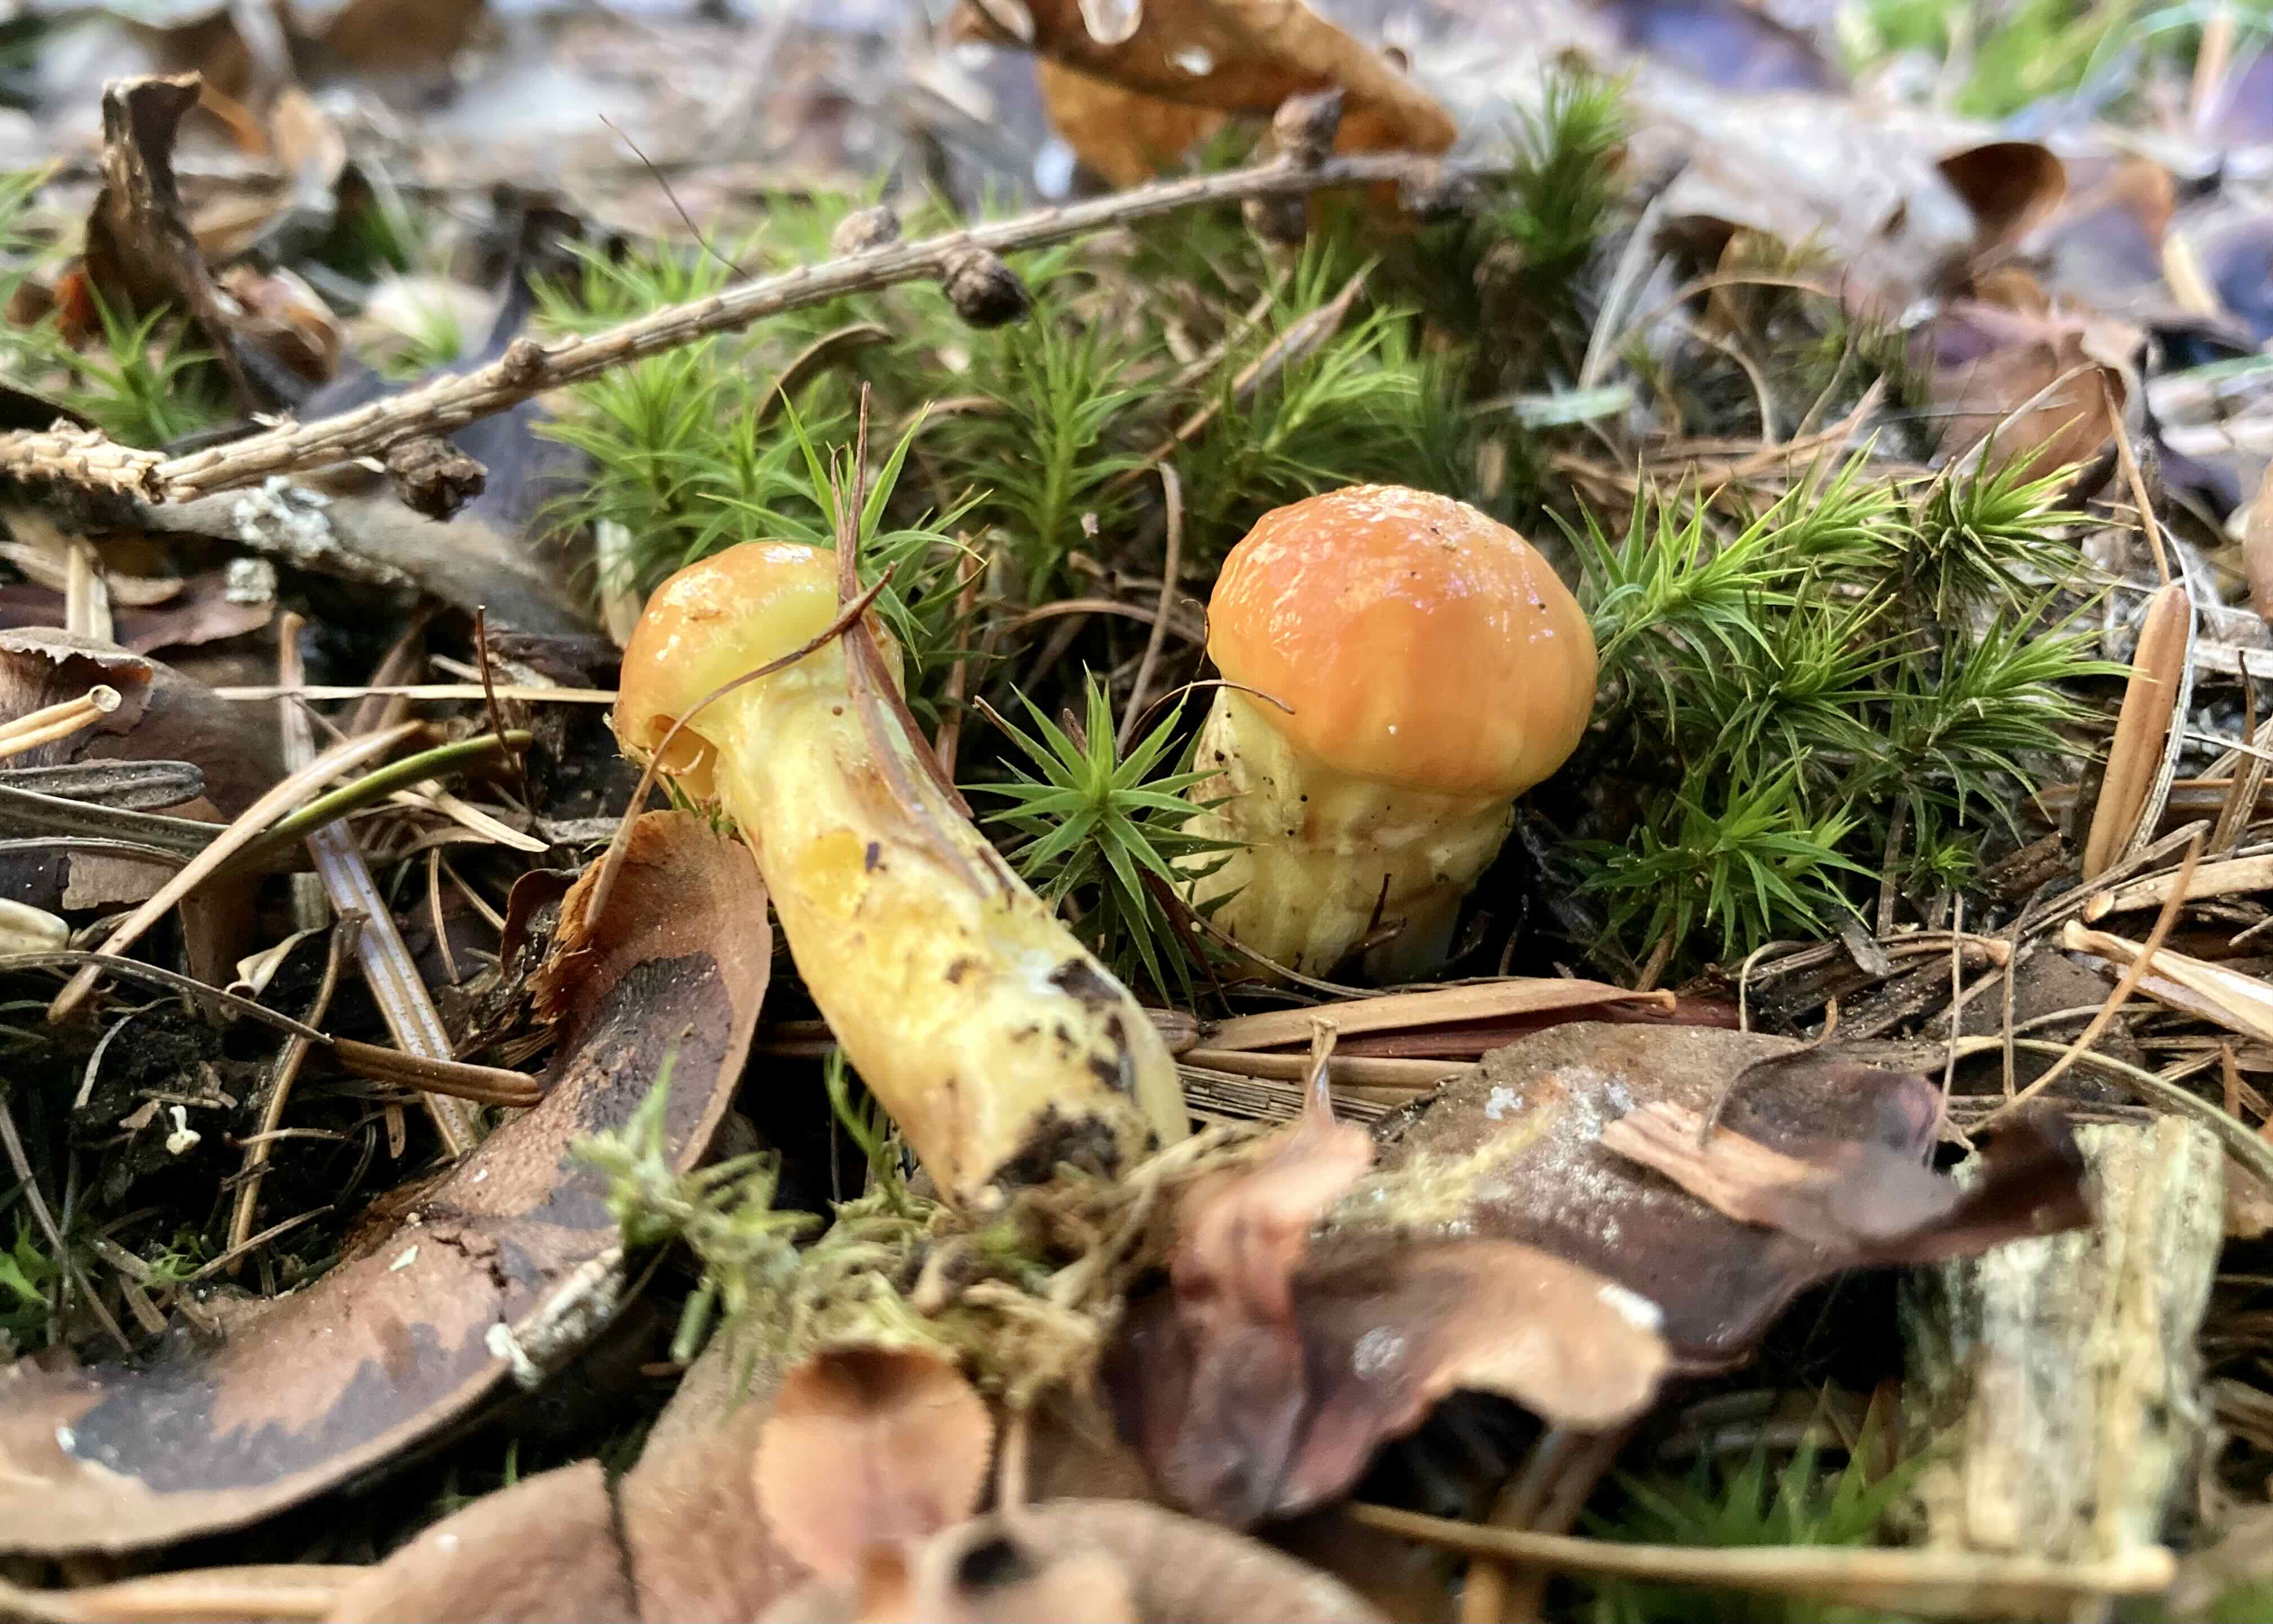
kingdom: Fungi
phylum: Basidiomycota
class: Agaricomycetes
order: Boletales
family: Suillaceae
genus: Suillus
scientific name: Suillus grevillei
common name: lærke-slimrørhat
